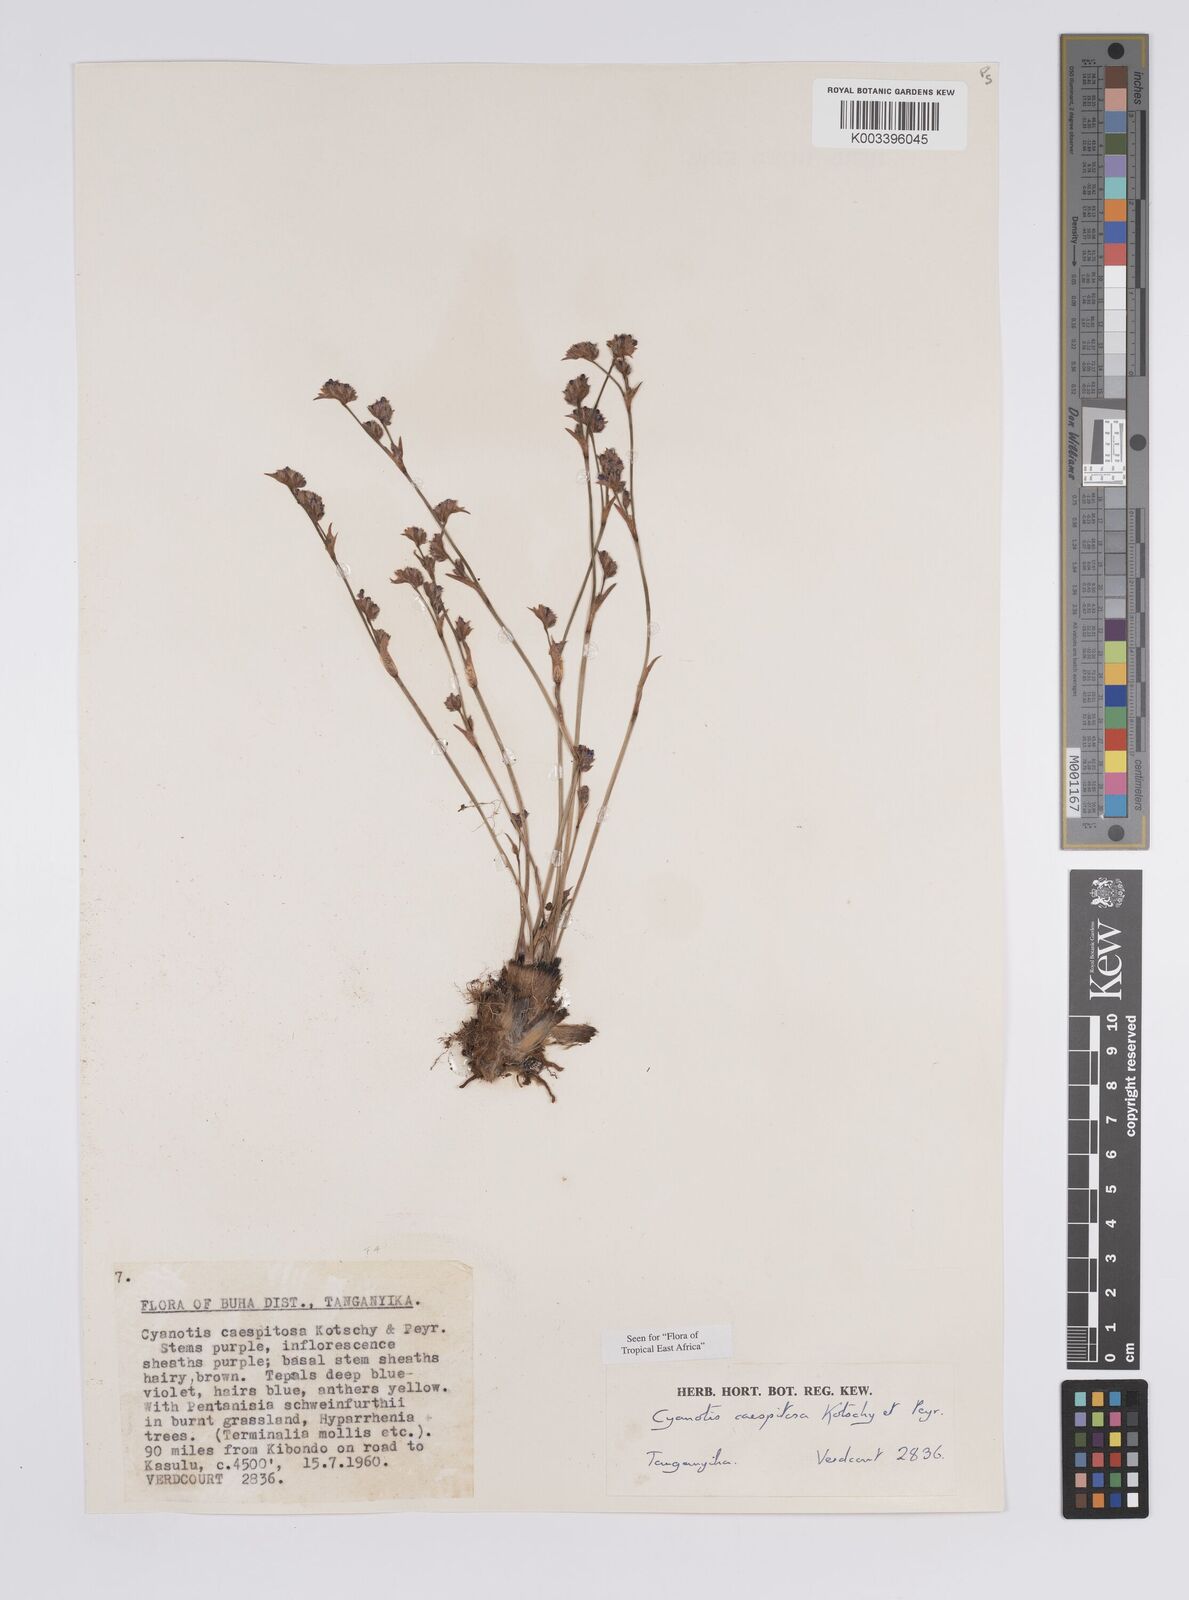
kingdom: Plantae
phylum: Tracheophyta
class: Liliopsida
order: Commelinales
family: Commelinaceae
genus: Cyanotis
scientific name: Cyanotis caespitosa
